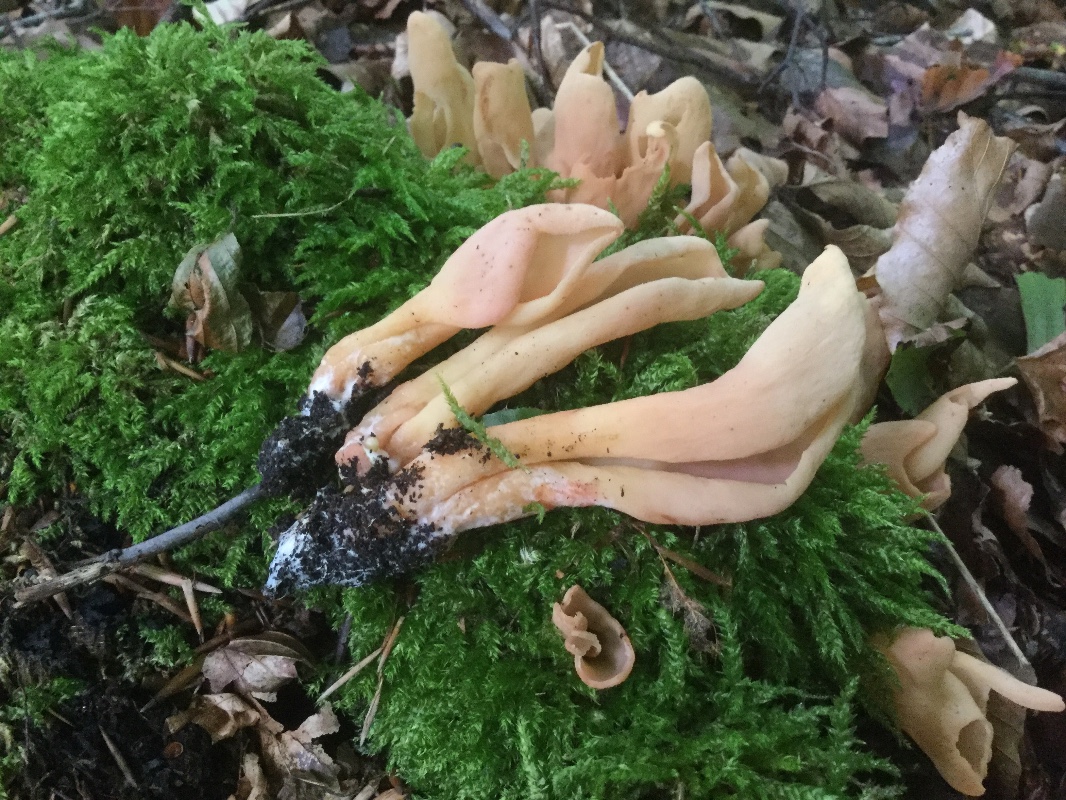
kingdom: Fungi
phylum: Ascomycota
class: Pezizomycetes
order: Pezizales
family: Otideaceae
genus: Otidea
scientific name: Otidea onotica
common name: æsel-ørebæger
